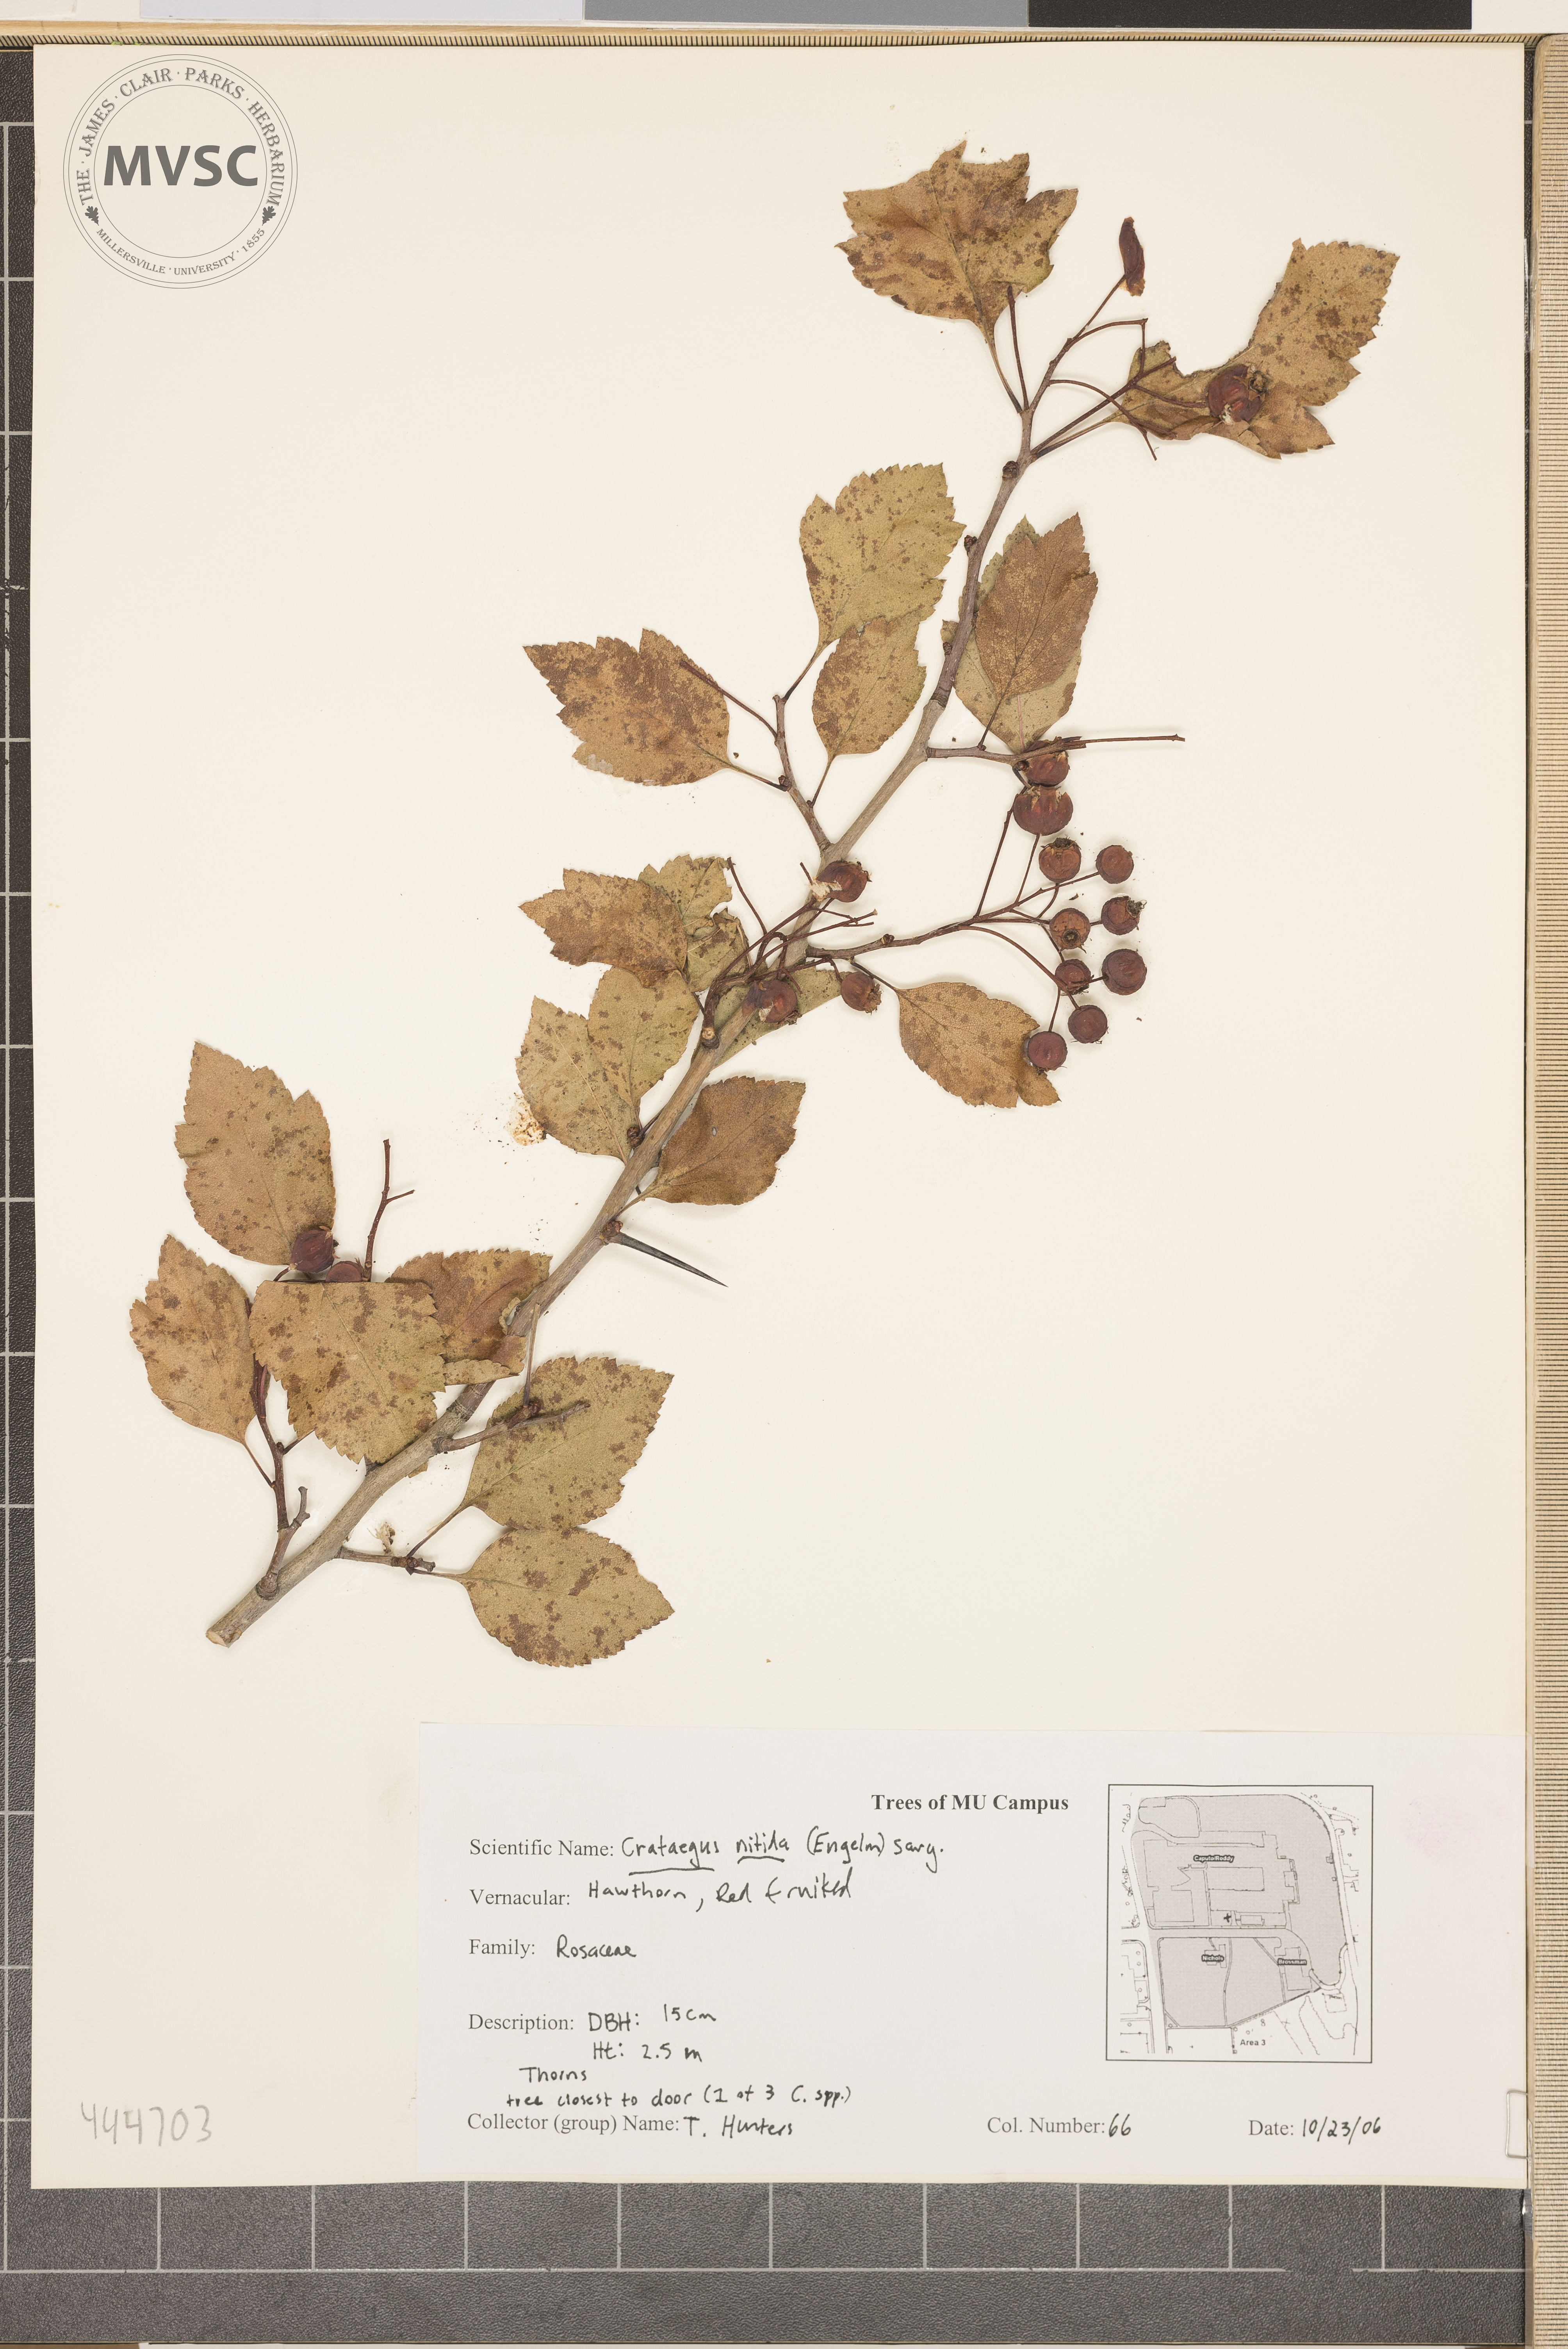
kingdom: Plantae
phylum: Tracheophyta
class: Magnoliopsida
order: Rosales
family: Rosaceae
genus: Crataegus
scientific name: Crataegus nitida
